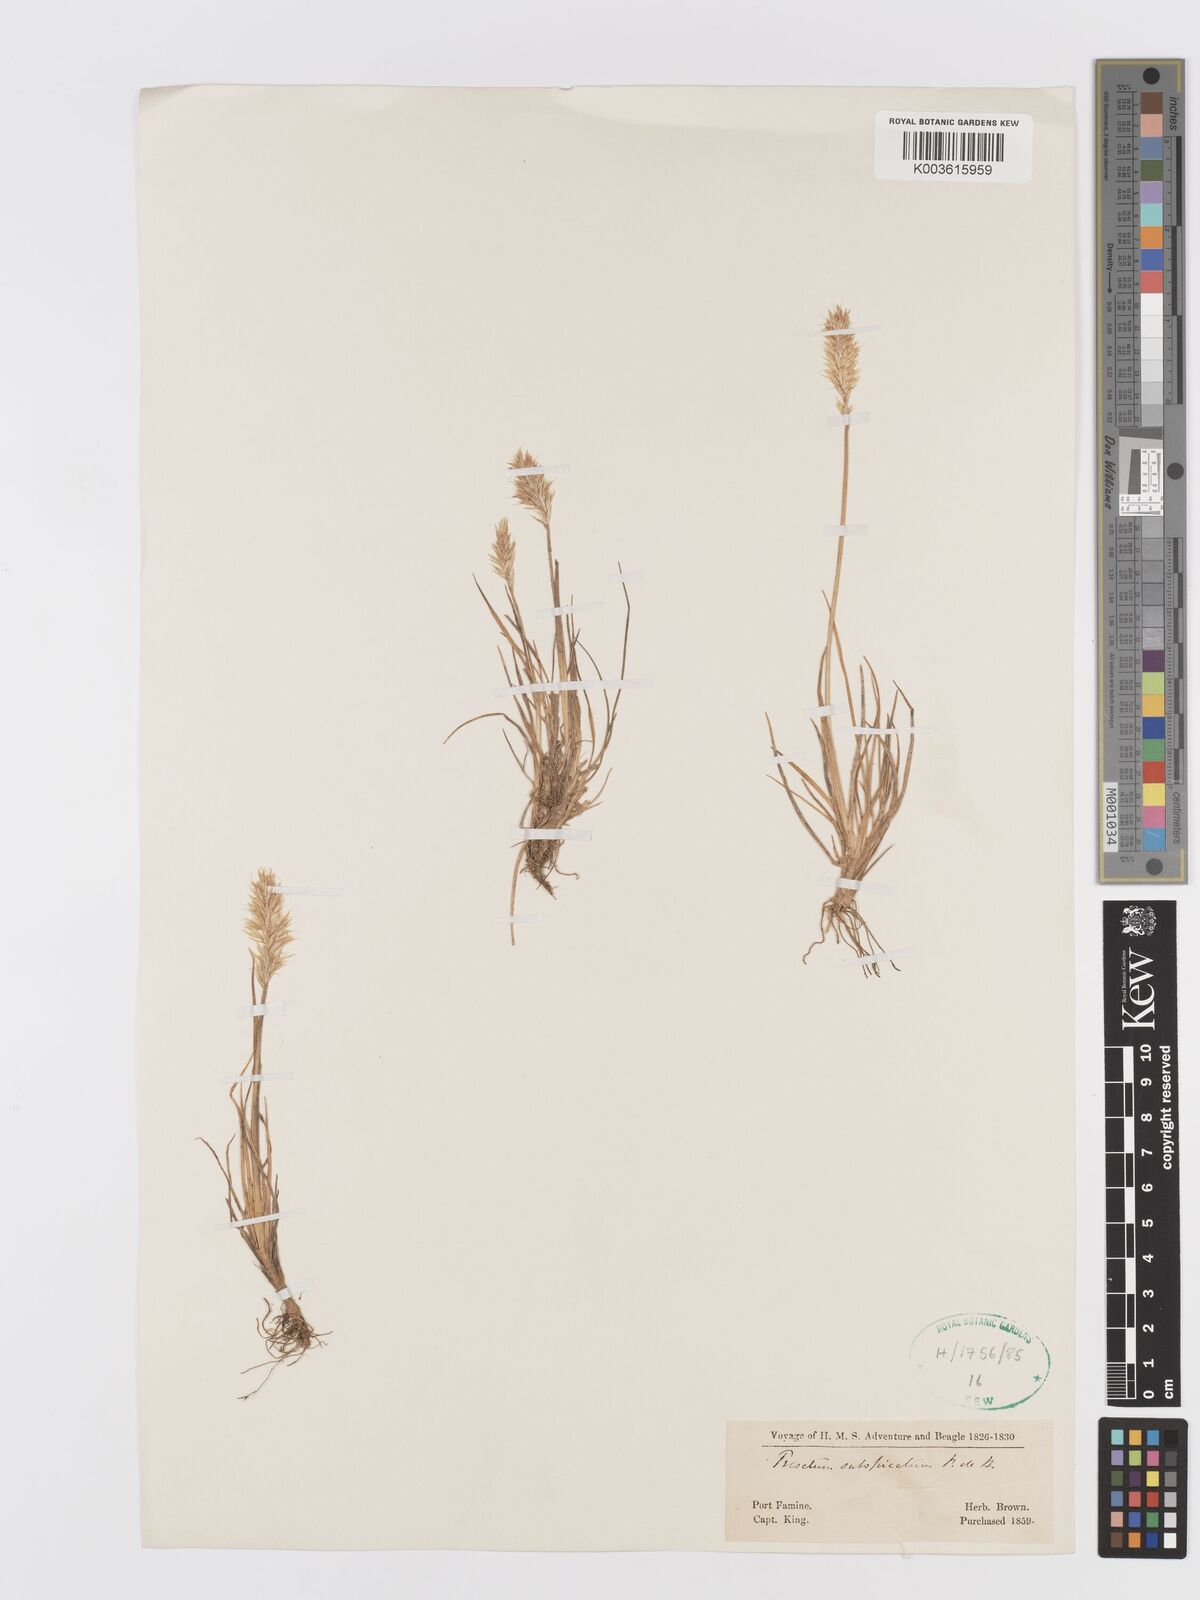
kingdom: Plantae
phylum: Tracheophyta
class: Liliopsida
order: Poales
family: Poaceae
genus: Koeleria
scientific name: Koeleria spicata
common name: Mountain trisetum
